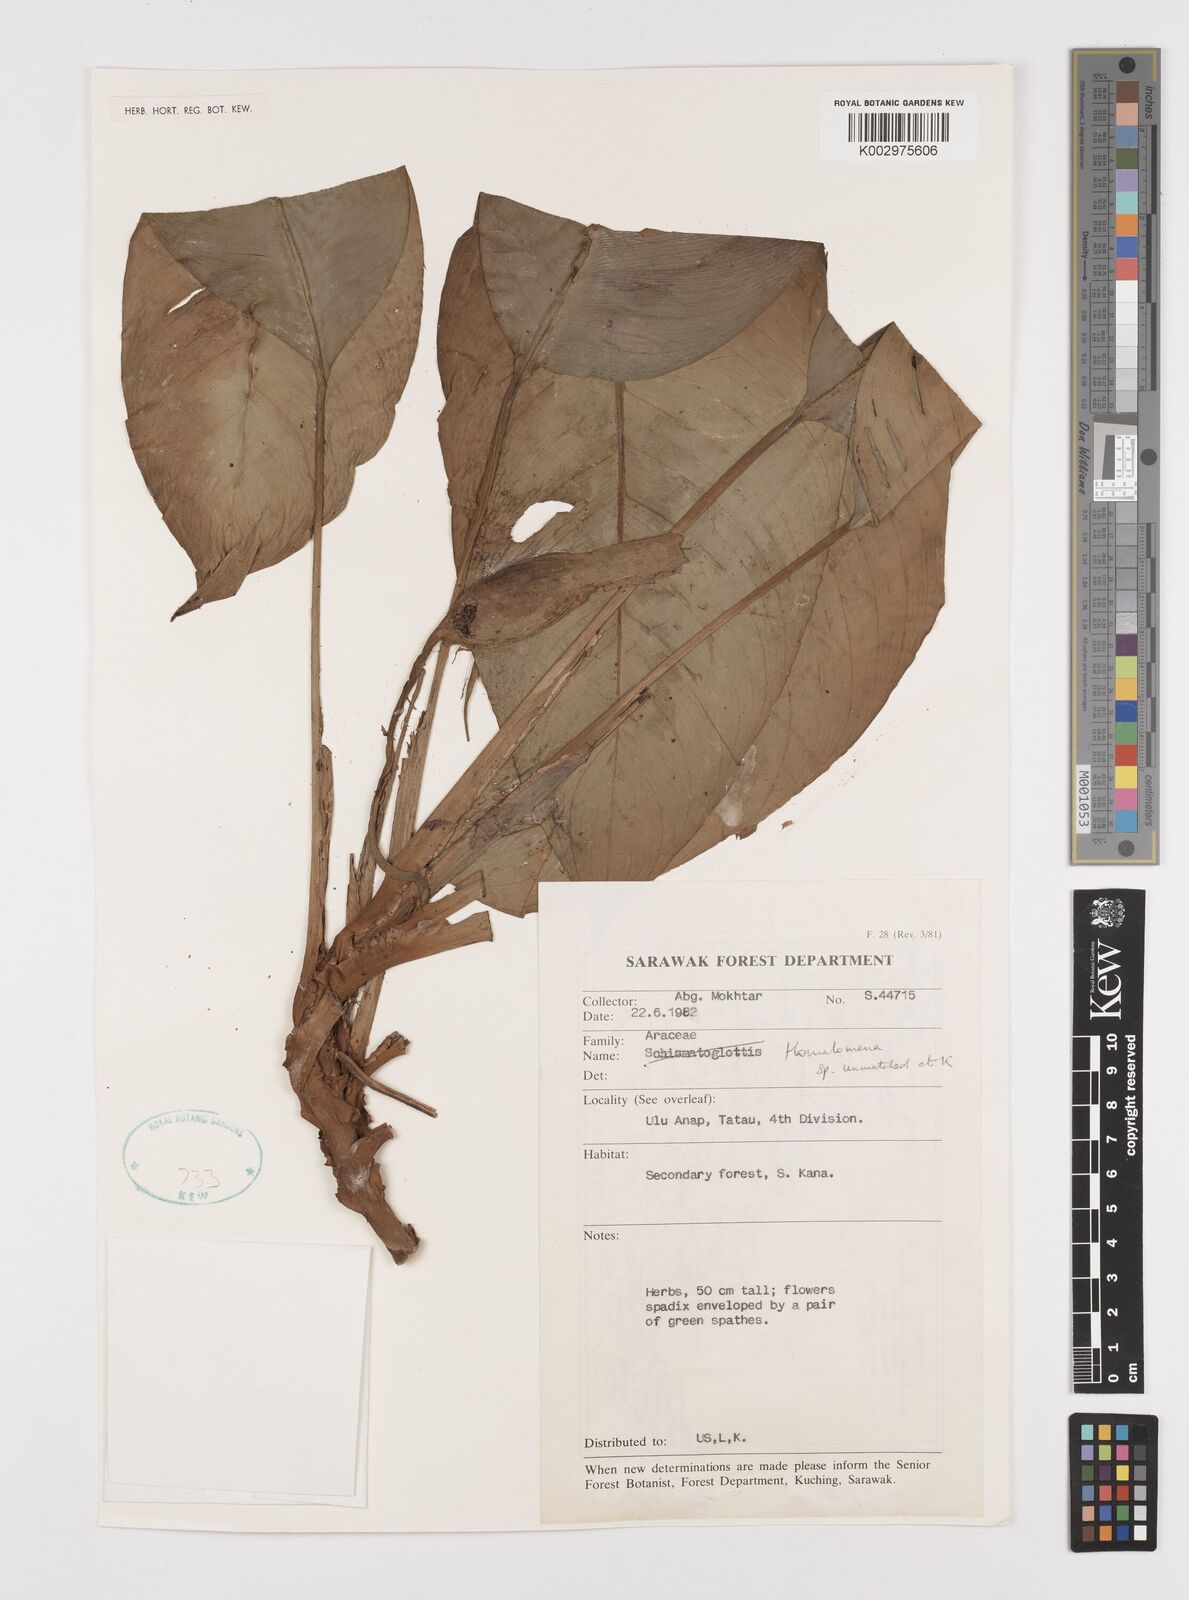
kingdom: Plantae
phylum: Tracheophyta
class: Liliopsida
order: Alismatales
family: Araceae
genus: Homalomena
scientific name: Homalomena
